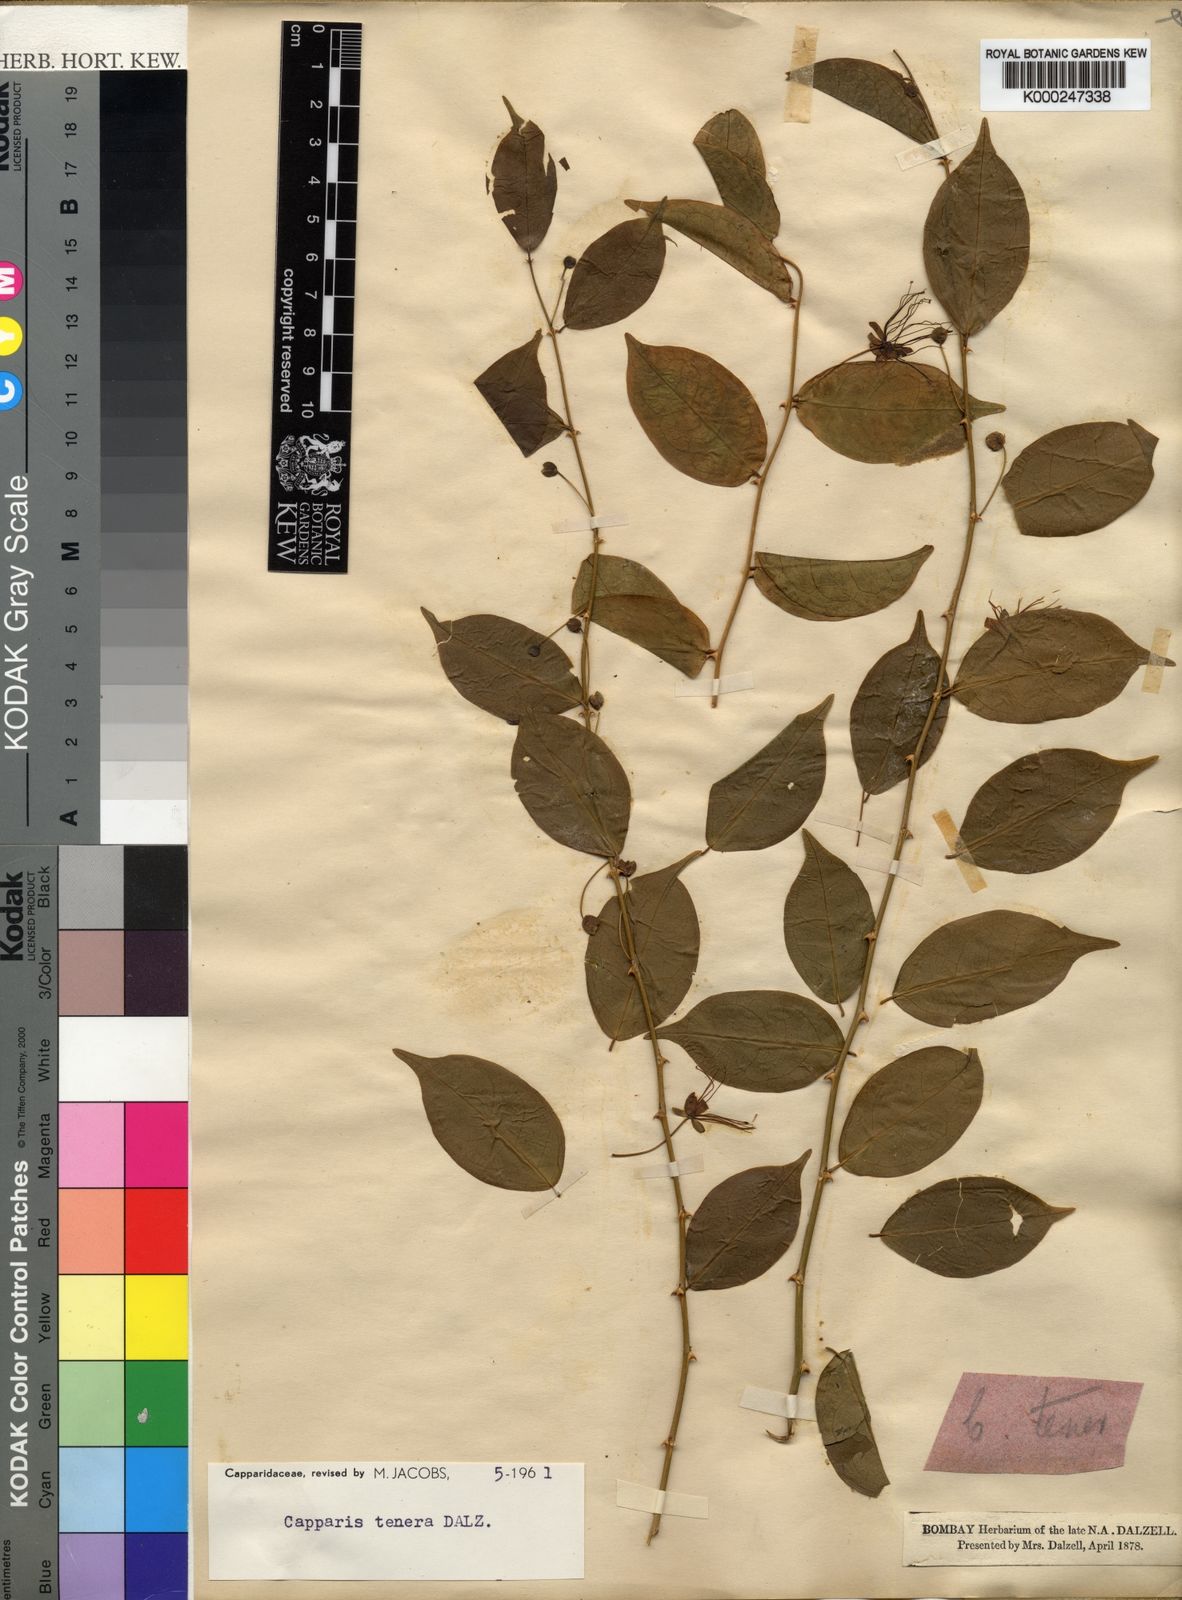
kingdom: Plantae
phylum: Tracheophyta
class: Magnoliopsida
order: Brassicales
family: Capparaceae
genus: Capparis
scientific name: Capparis tenera
